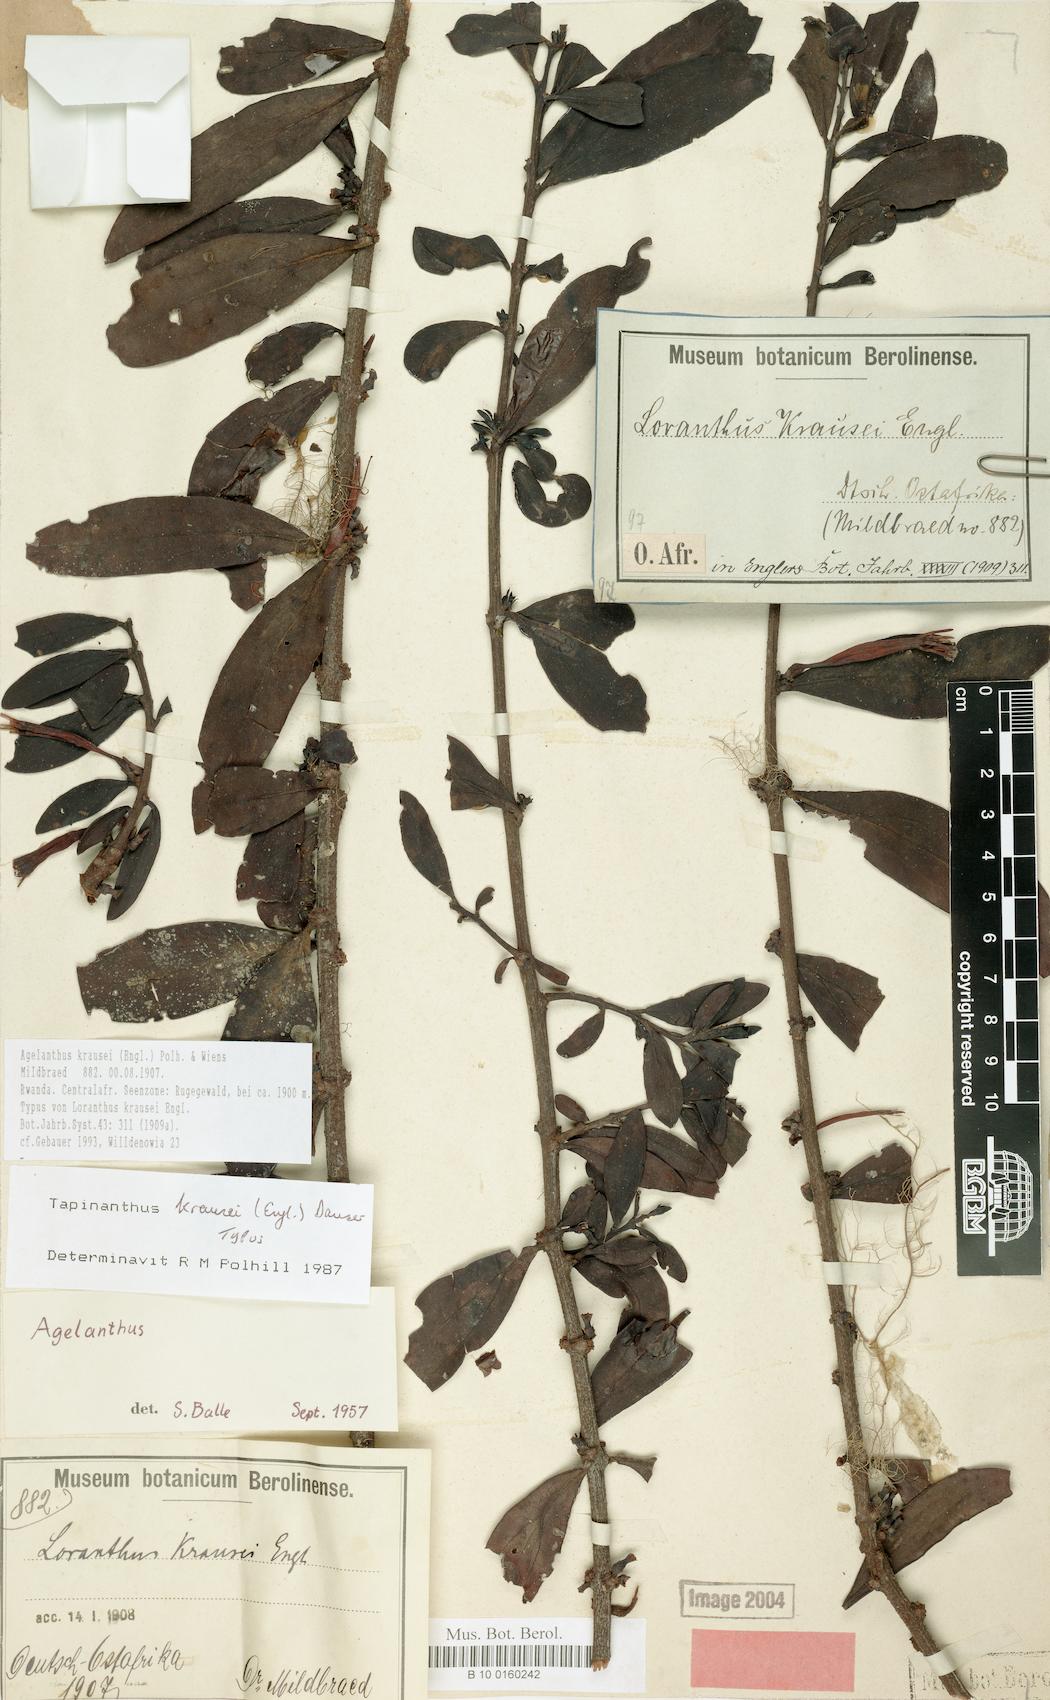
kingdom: Plantae
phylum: Tracheophyta
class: Magnoliopsida
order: Santalales
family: Loranthaceae
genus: Agelanthus
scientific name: Agelanthus krausei
